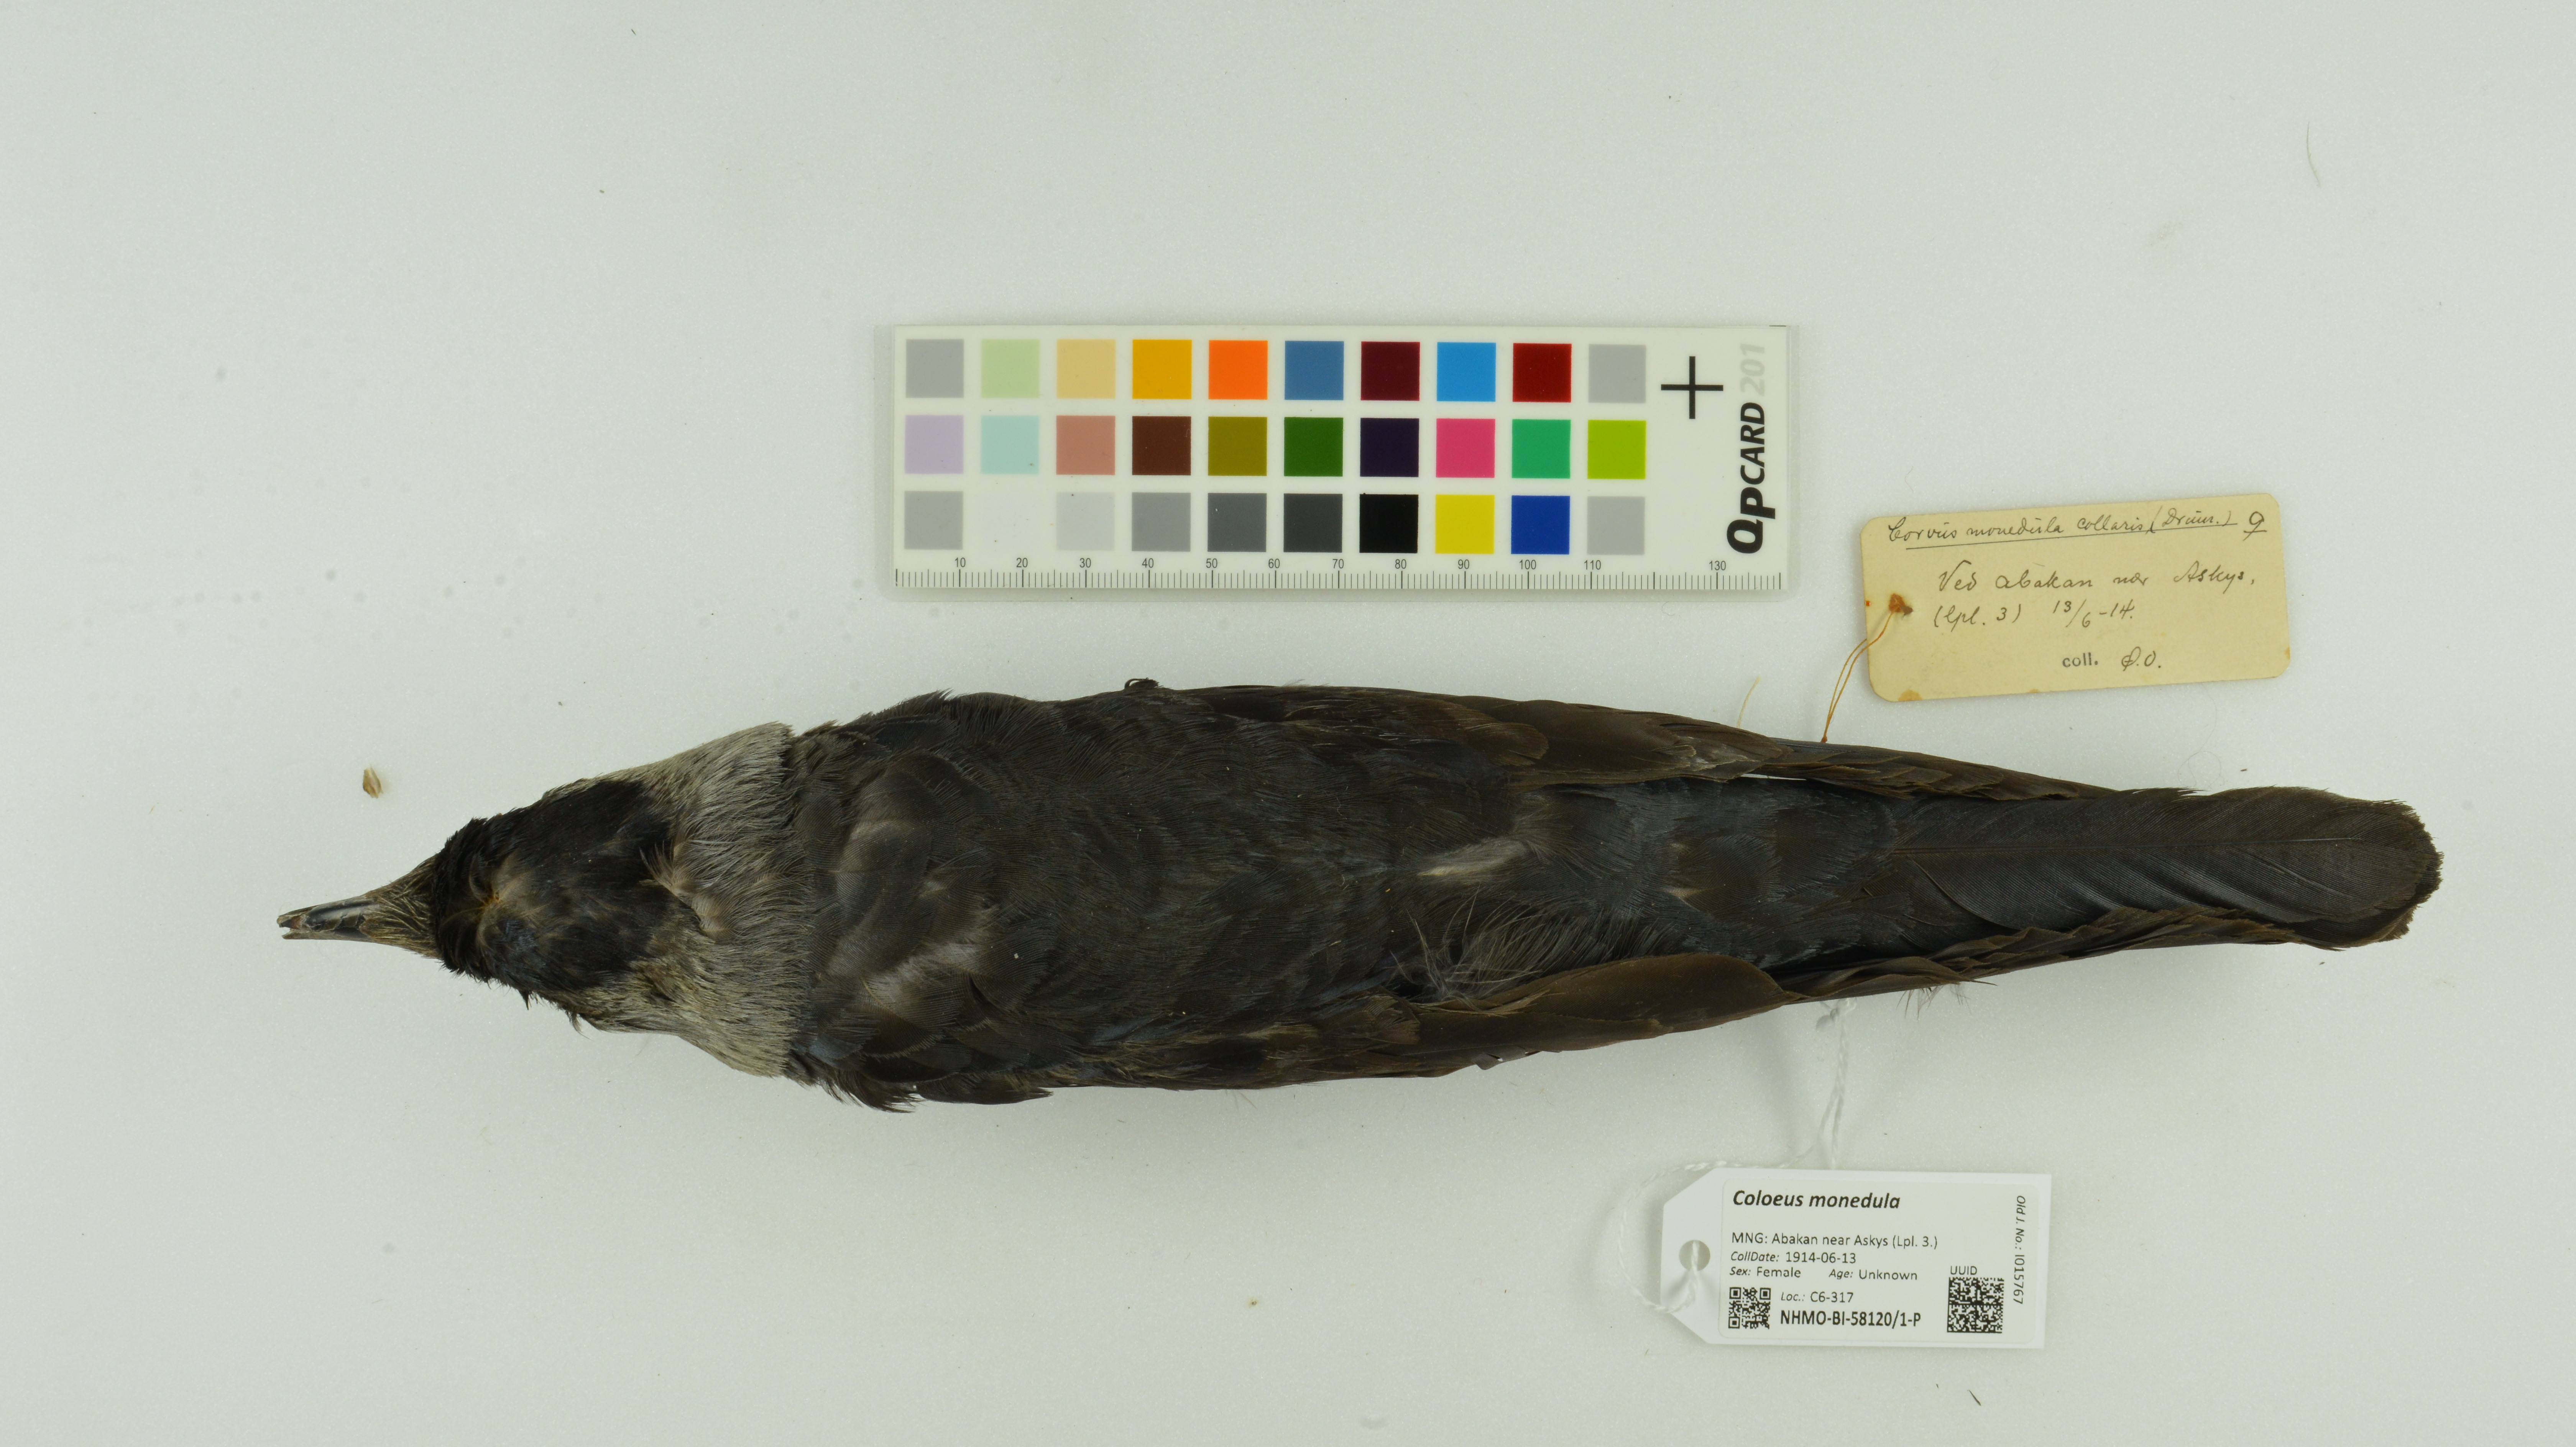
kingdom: Animalia
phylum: Chordata
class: Aves
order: Passeriformes
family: Corvidae
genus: Coloeus
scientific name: Coloeus monedula
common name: Western jackdaw
